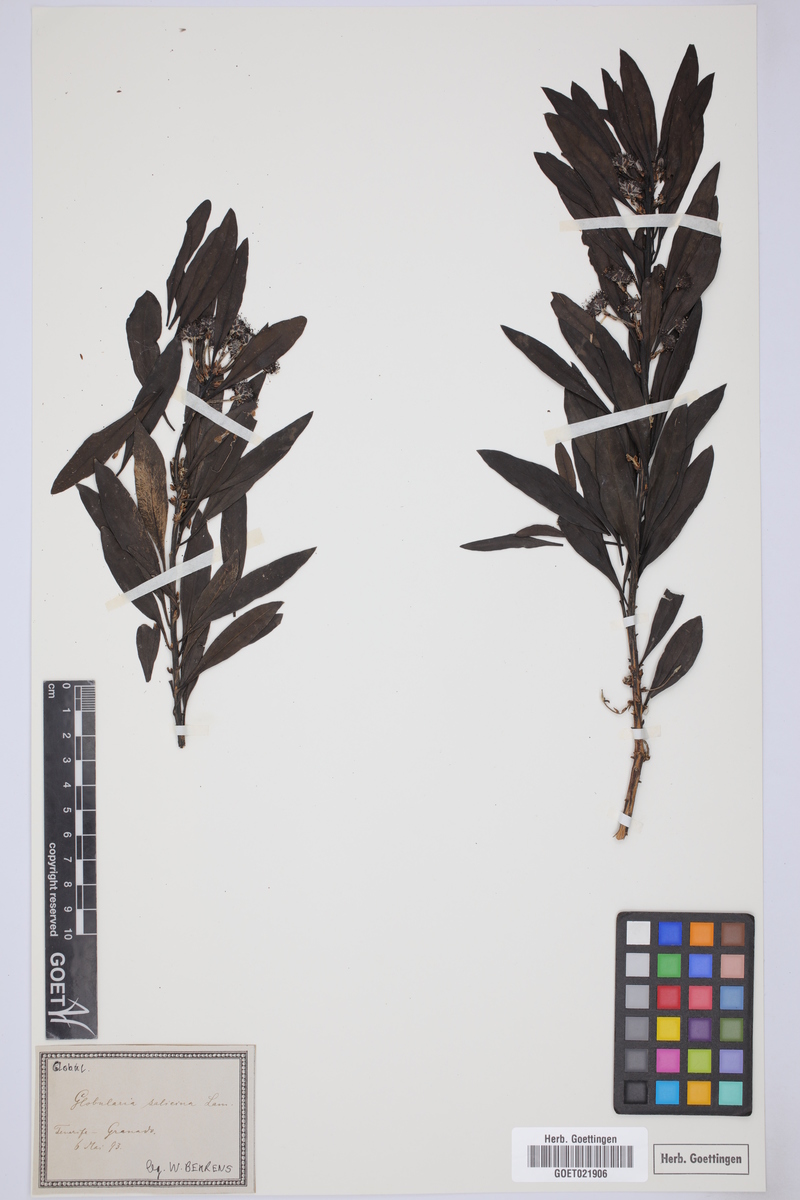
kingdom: Plantae
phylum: Tracheophyta
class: Magnoliopsida
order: Lamiales
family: Plantaginaceae
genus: Globularia
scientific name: Globularia salicina
